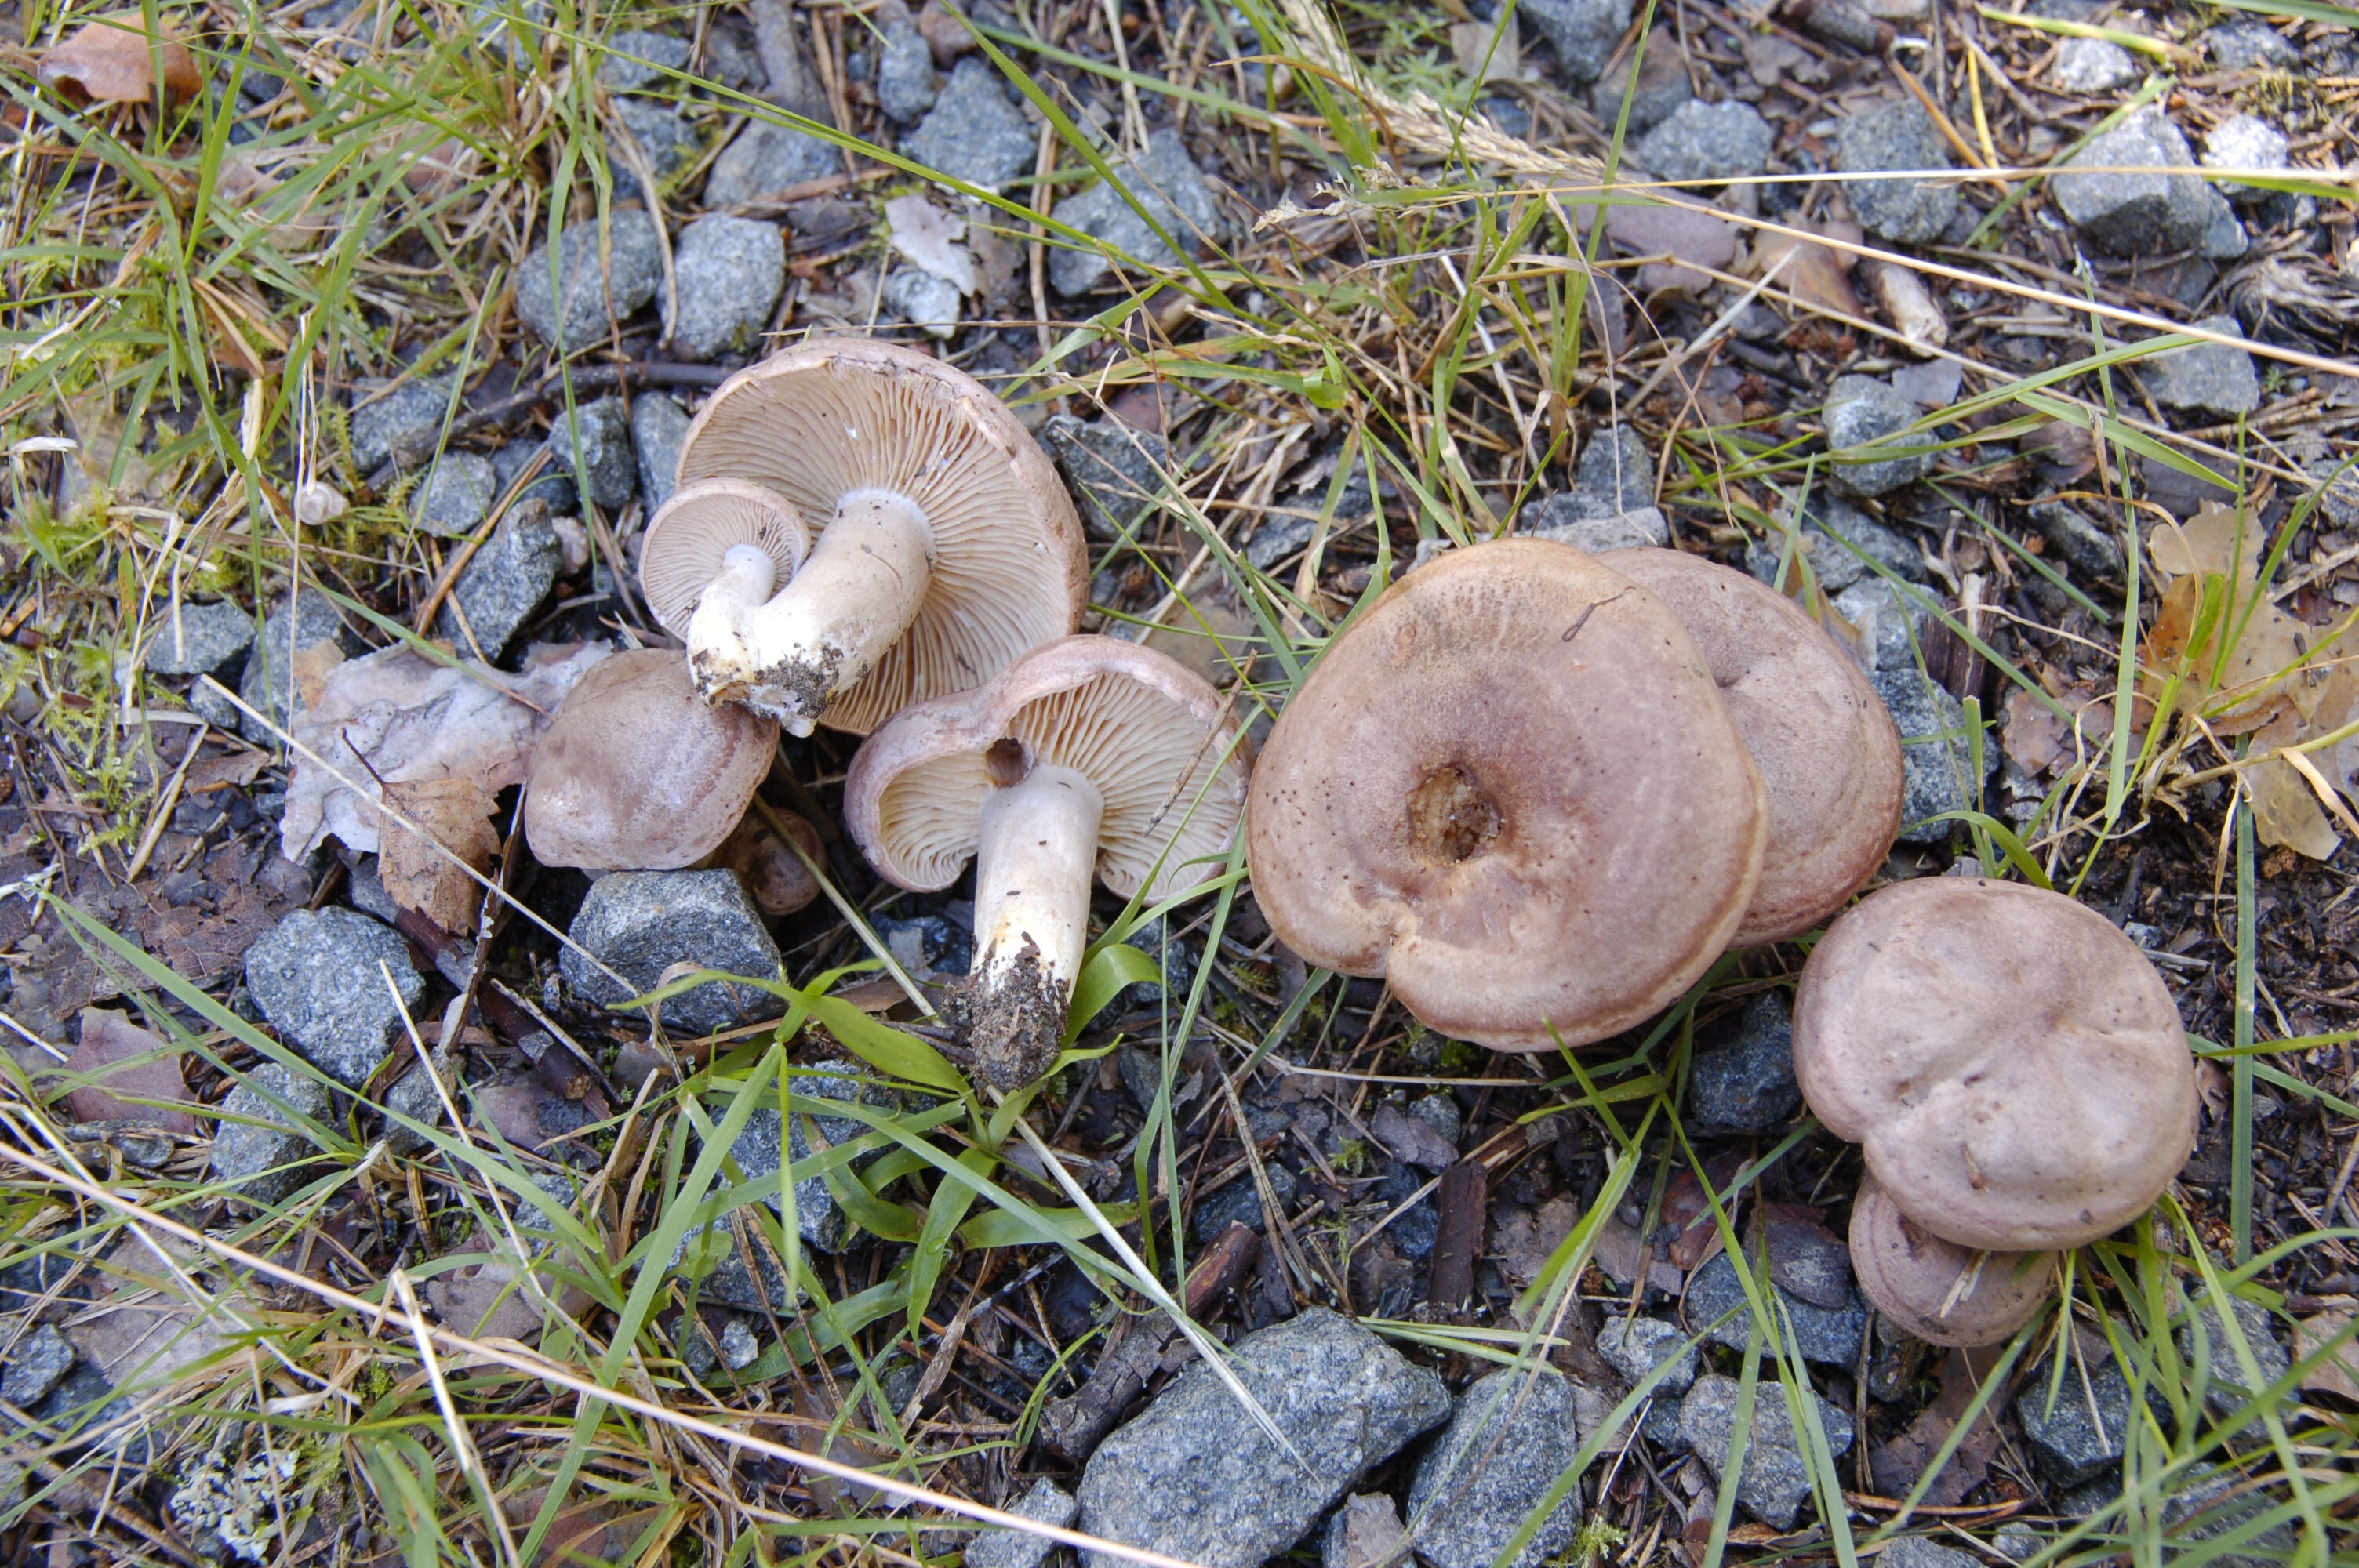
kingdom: Fungi
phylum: Basidiomycota
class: Agaricomycetes
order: Russulales
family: Russulaceae
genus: Lactarius
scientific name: Lactarius flexuosus
